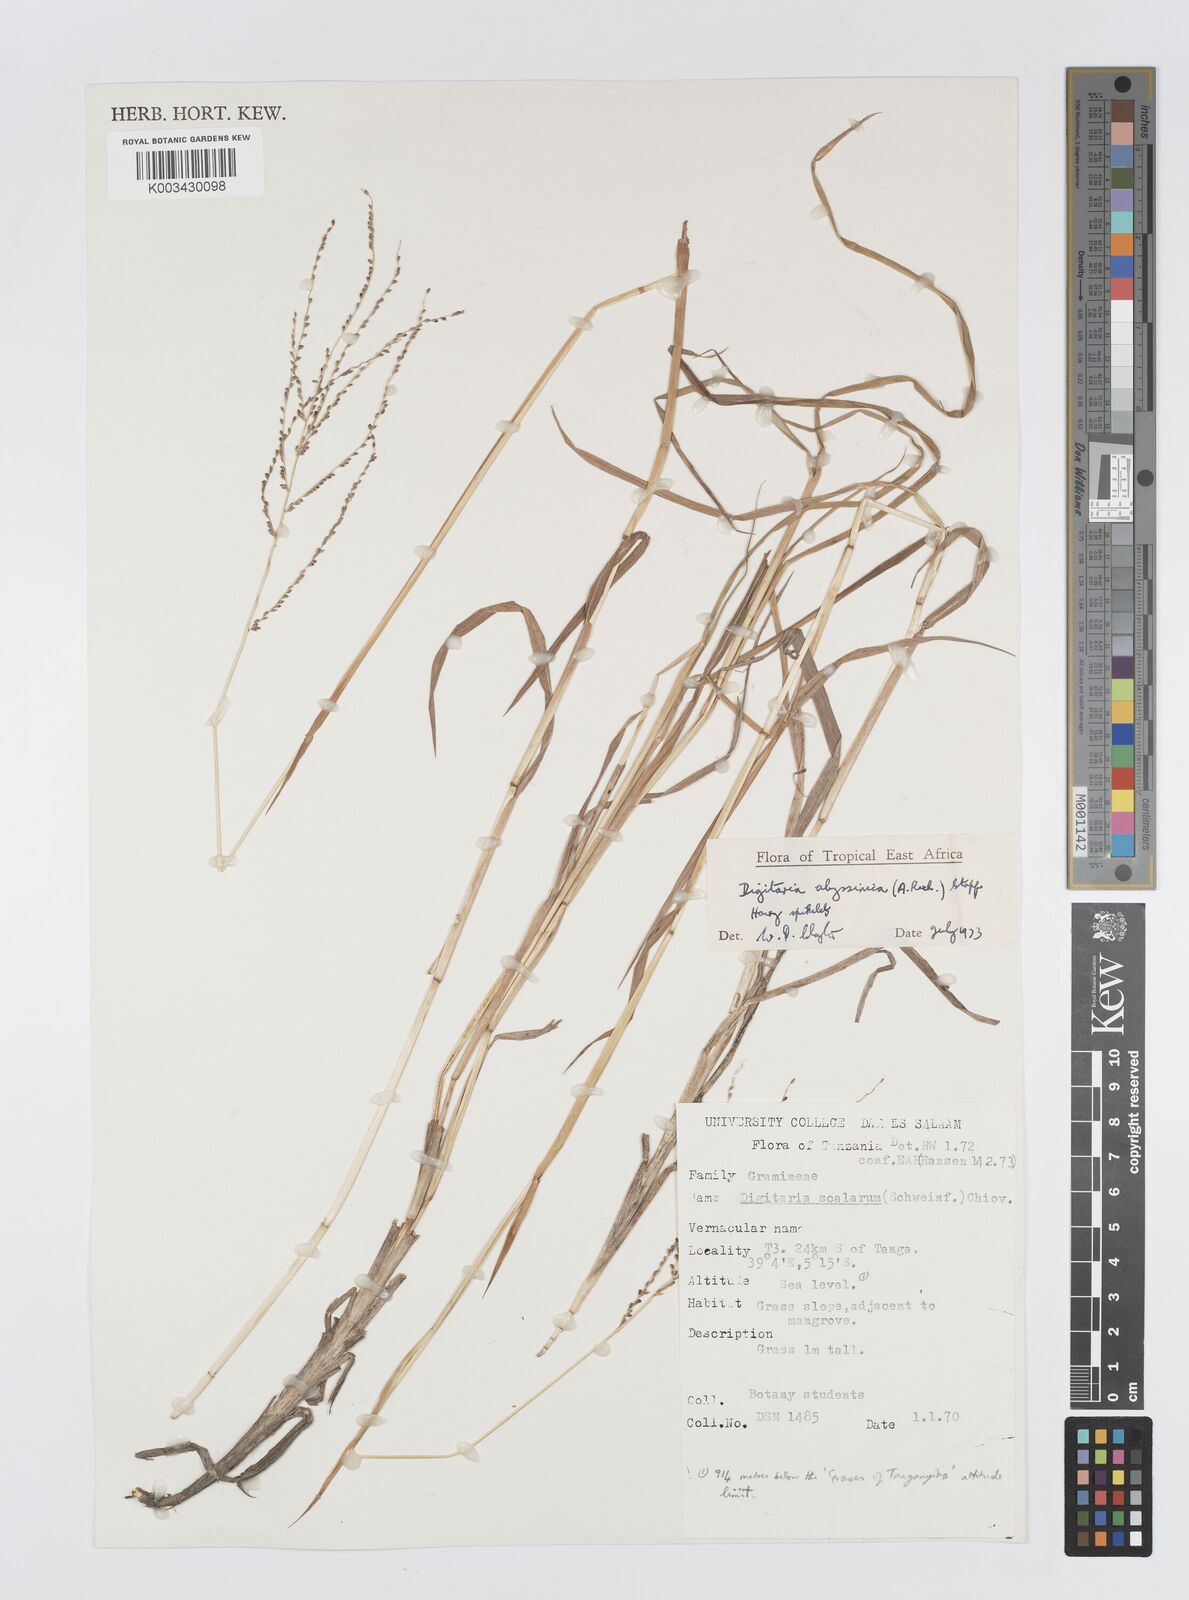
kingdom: Plantae
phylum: Tracheophyta
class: Liliopsida
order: Poales
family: Poaceae
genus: Digitaria
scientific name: Digitaria abyssinica
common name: African couchgrass
